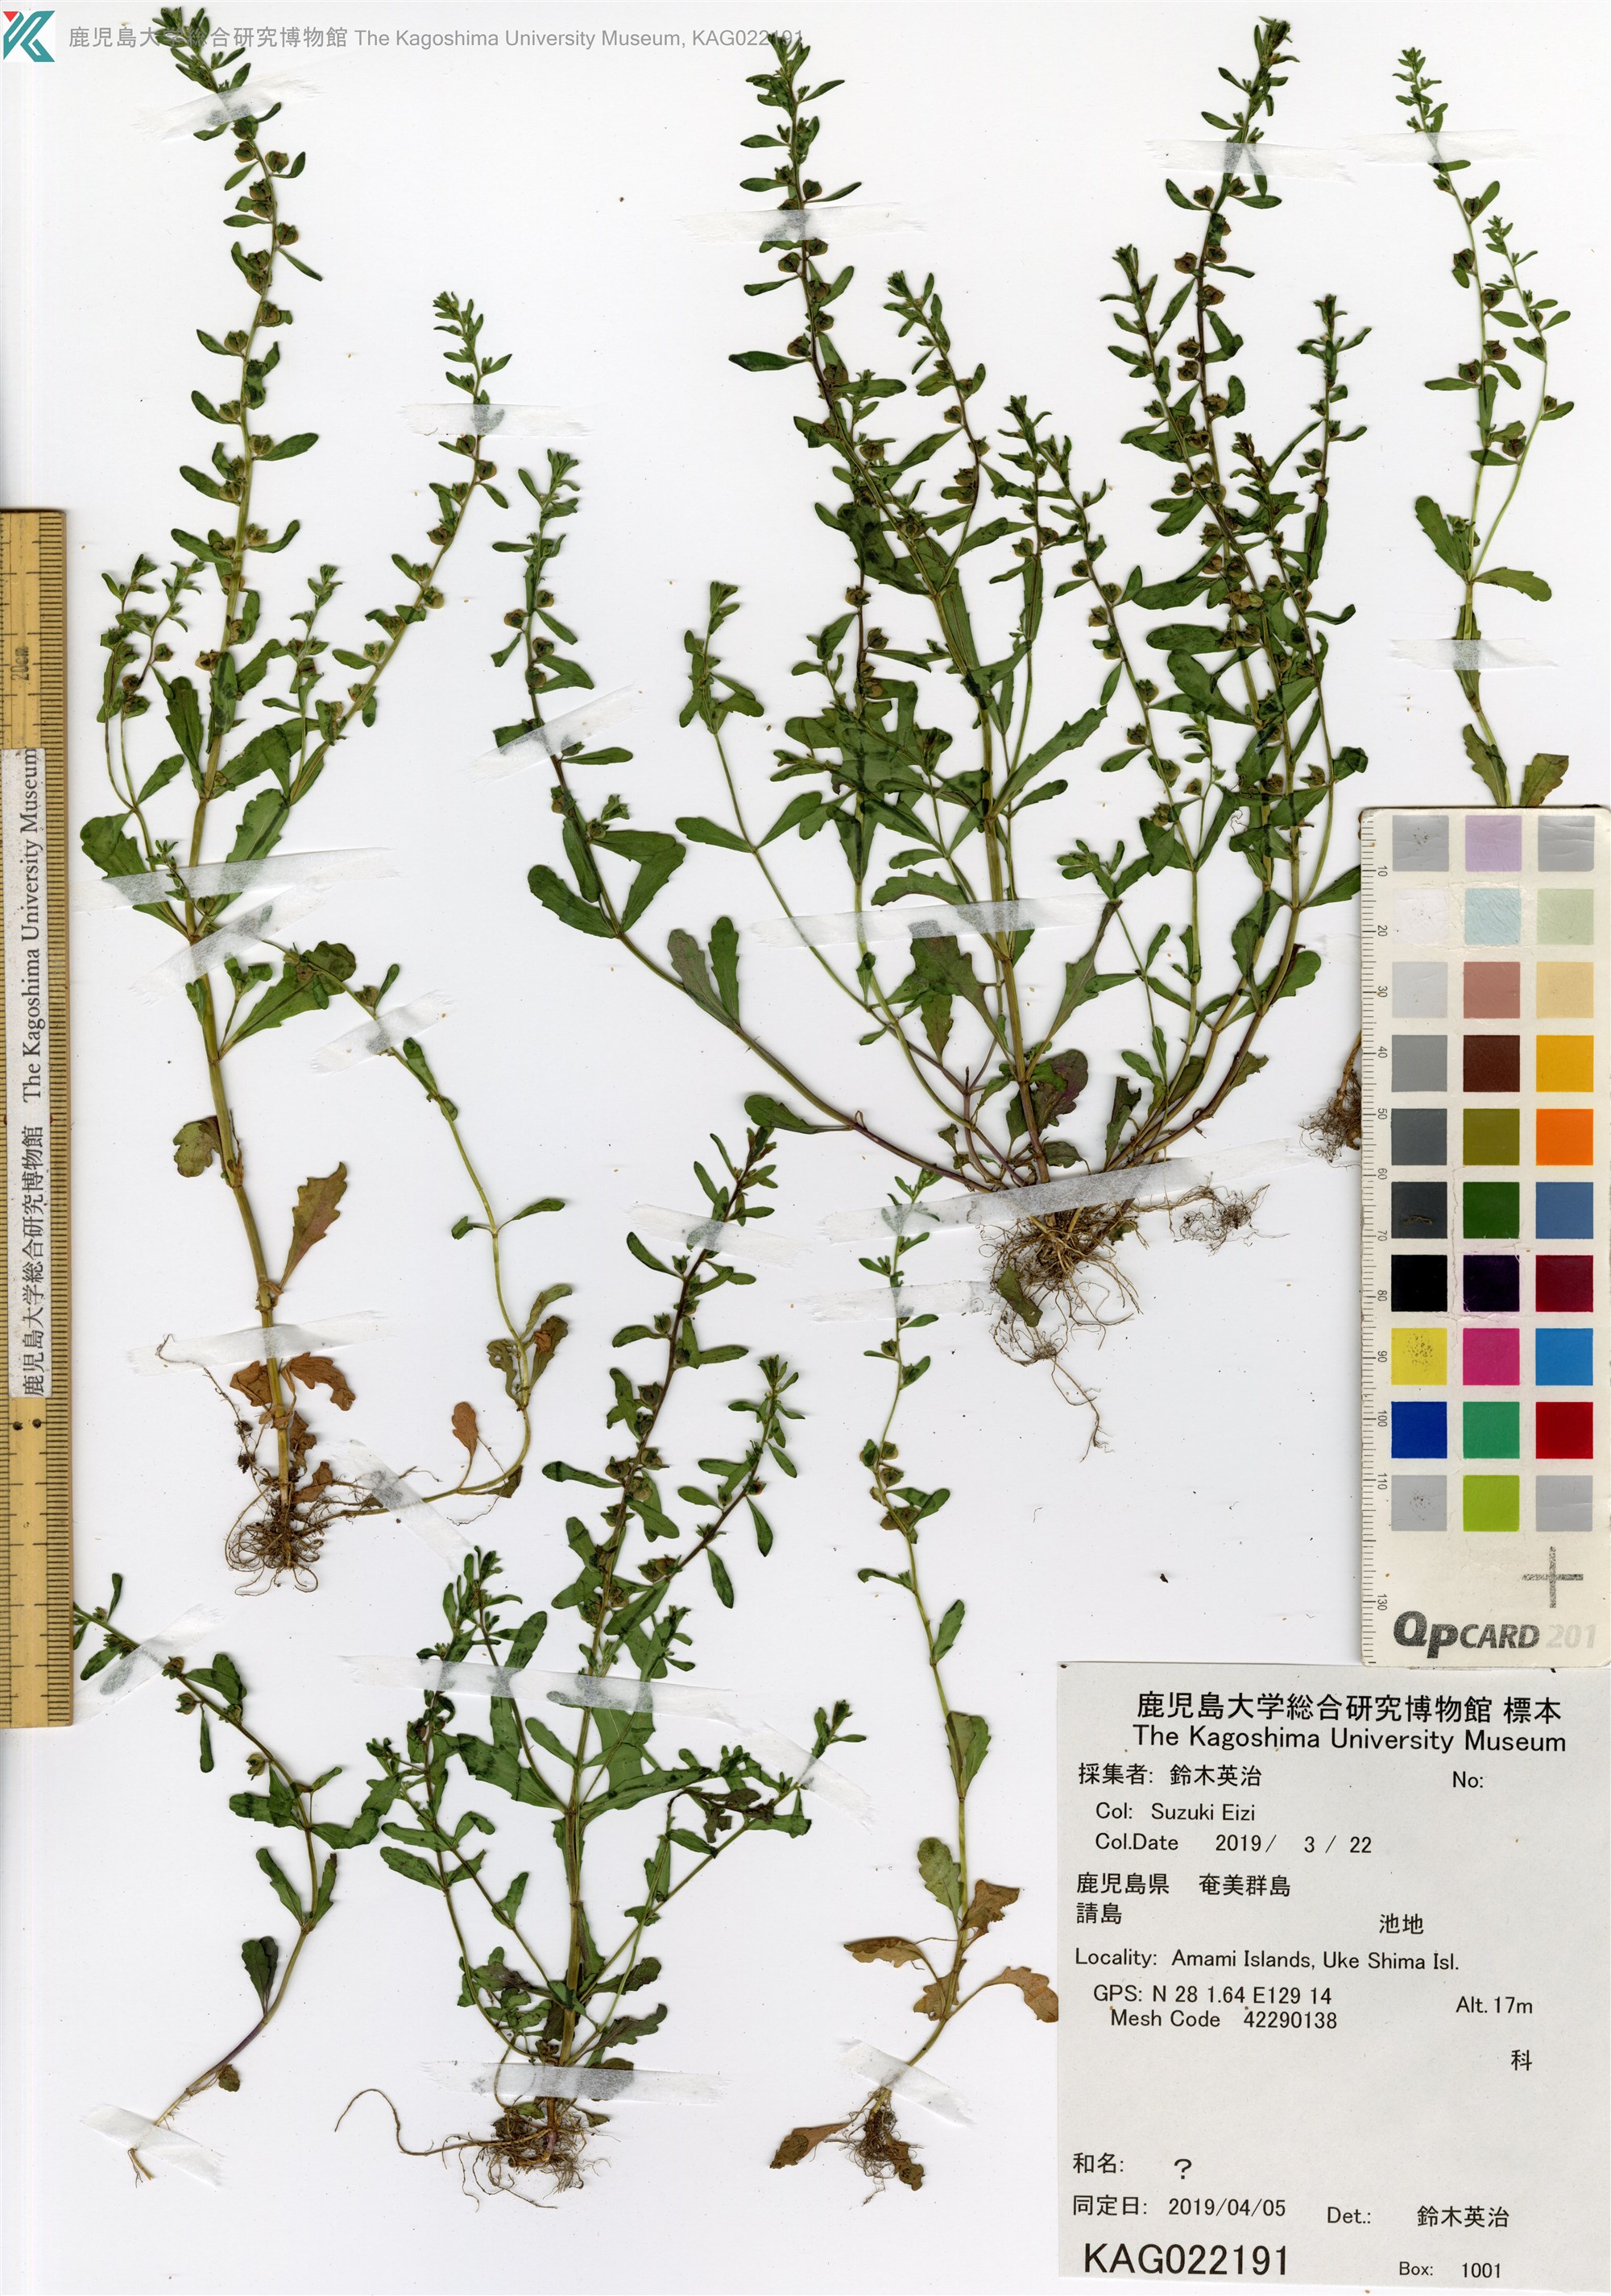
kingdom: Plantae
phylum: Tracheophyta
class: Magnoliopsida
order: Lamiales
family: Plantaginaceae
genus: Veronica
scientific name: Veronica peregrina
